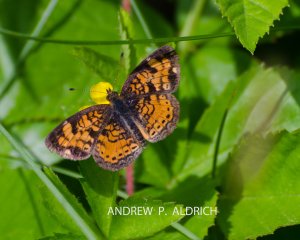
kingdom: Animalia
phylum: Arthropoda
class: Insecta
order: Lepidoptera
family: Nymphalidae
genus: Phyciodes
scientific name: Phyciodes tharos
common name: Pearl Crescent
